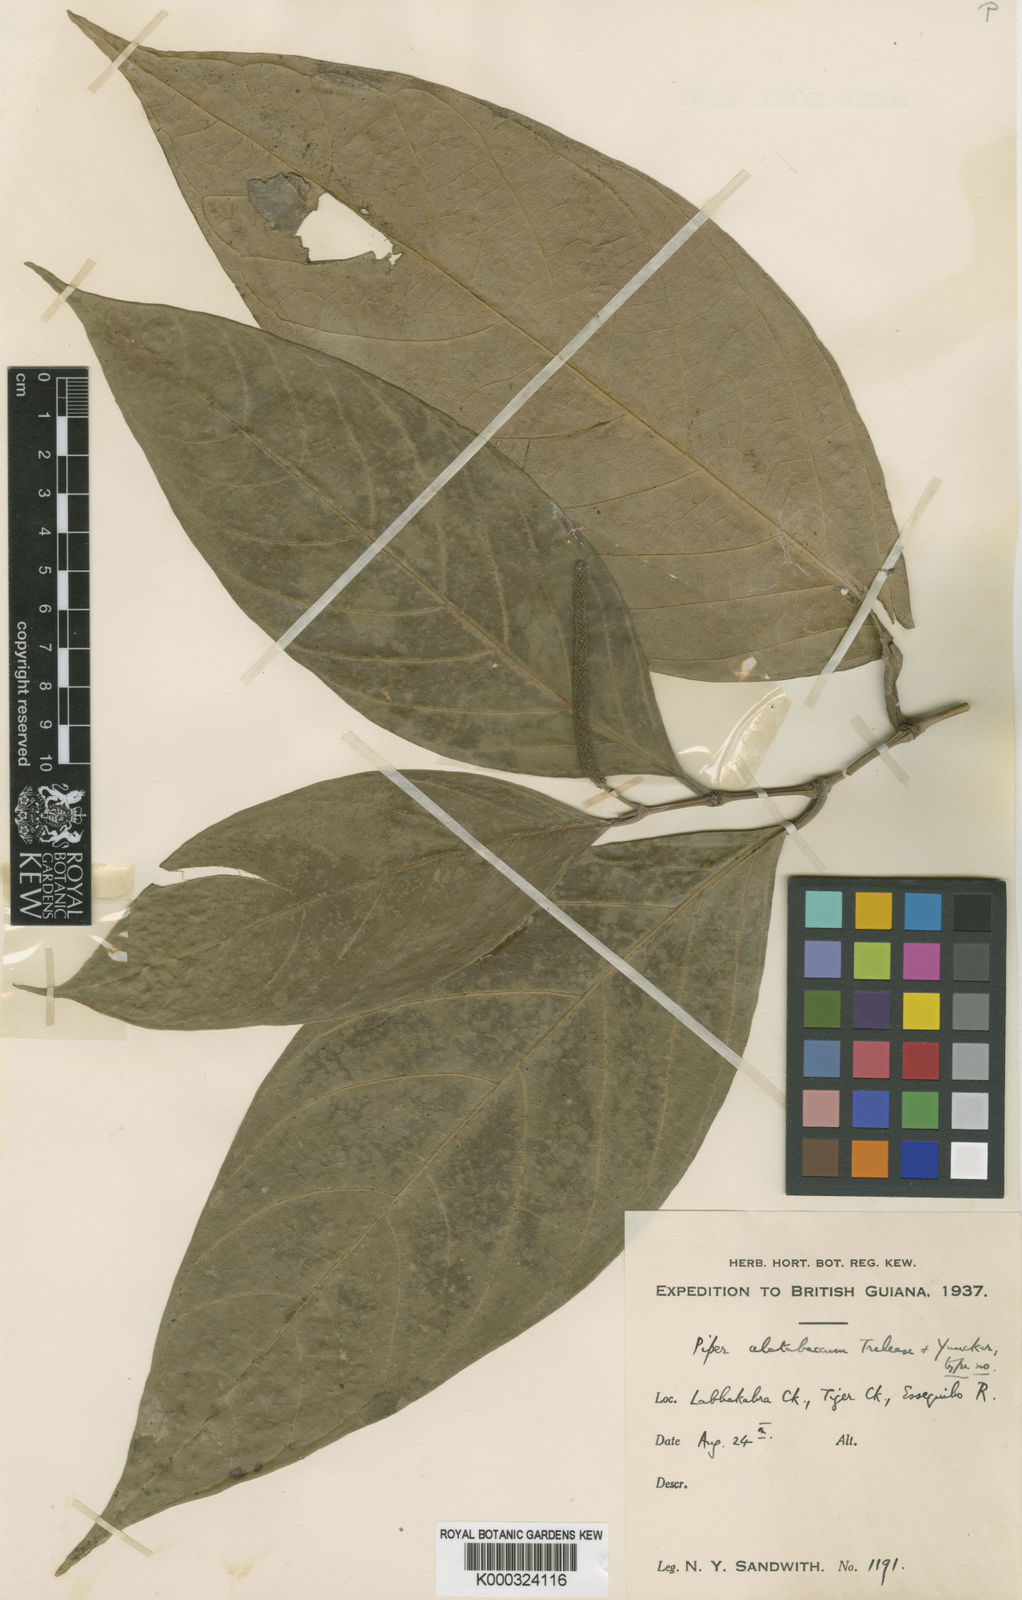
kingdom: Plantae
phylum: Tracheophyta
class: Magnoliopsida
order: Piperales
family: Piperaceae
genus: Piper
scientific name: Piper alatabaccum
